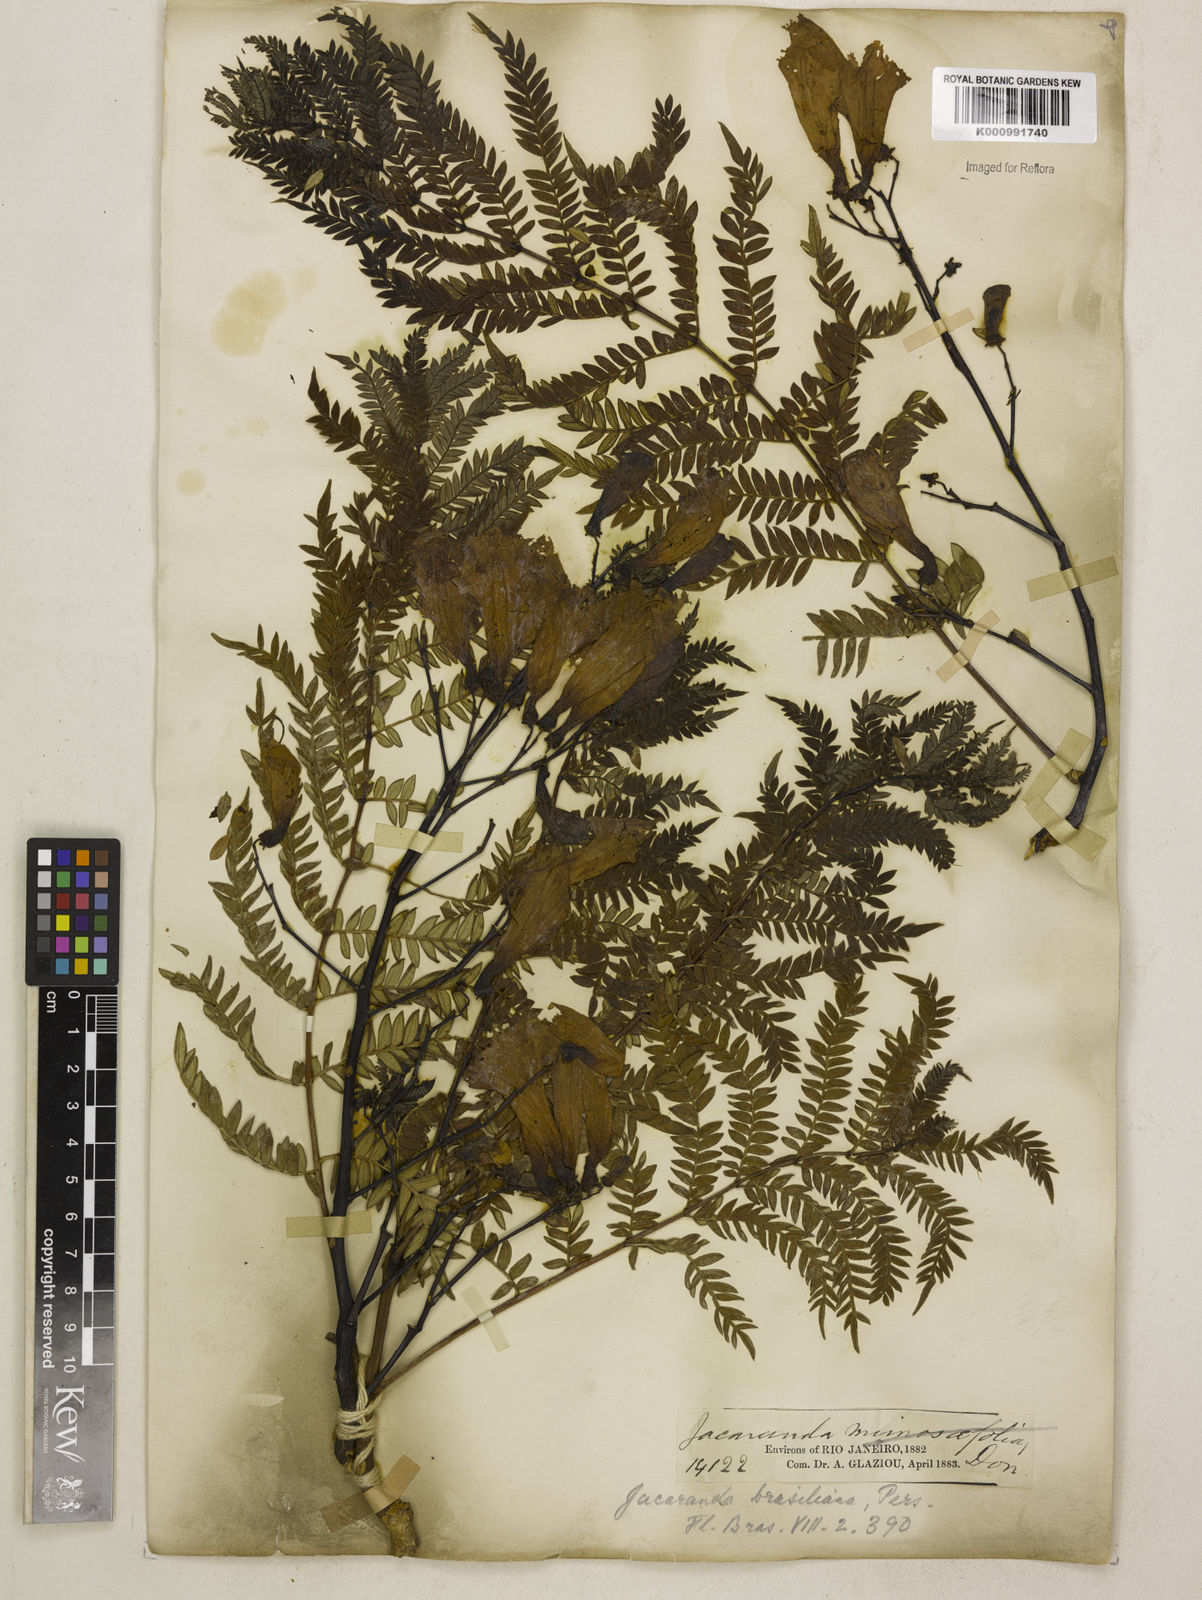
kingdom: Plantae
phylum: Tracheophyta
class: Magnoliopsida
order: Lamiales
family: Bignoniaceae
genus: Jacaranda
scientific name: Jacaranda brasiliana
